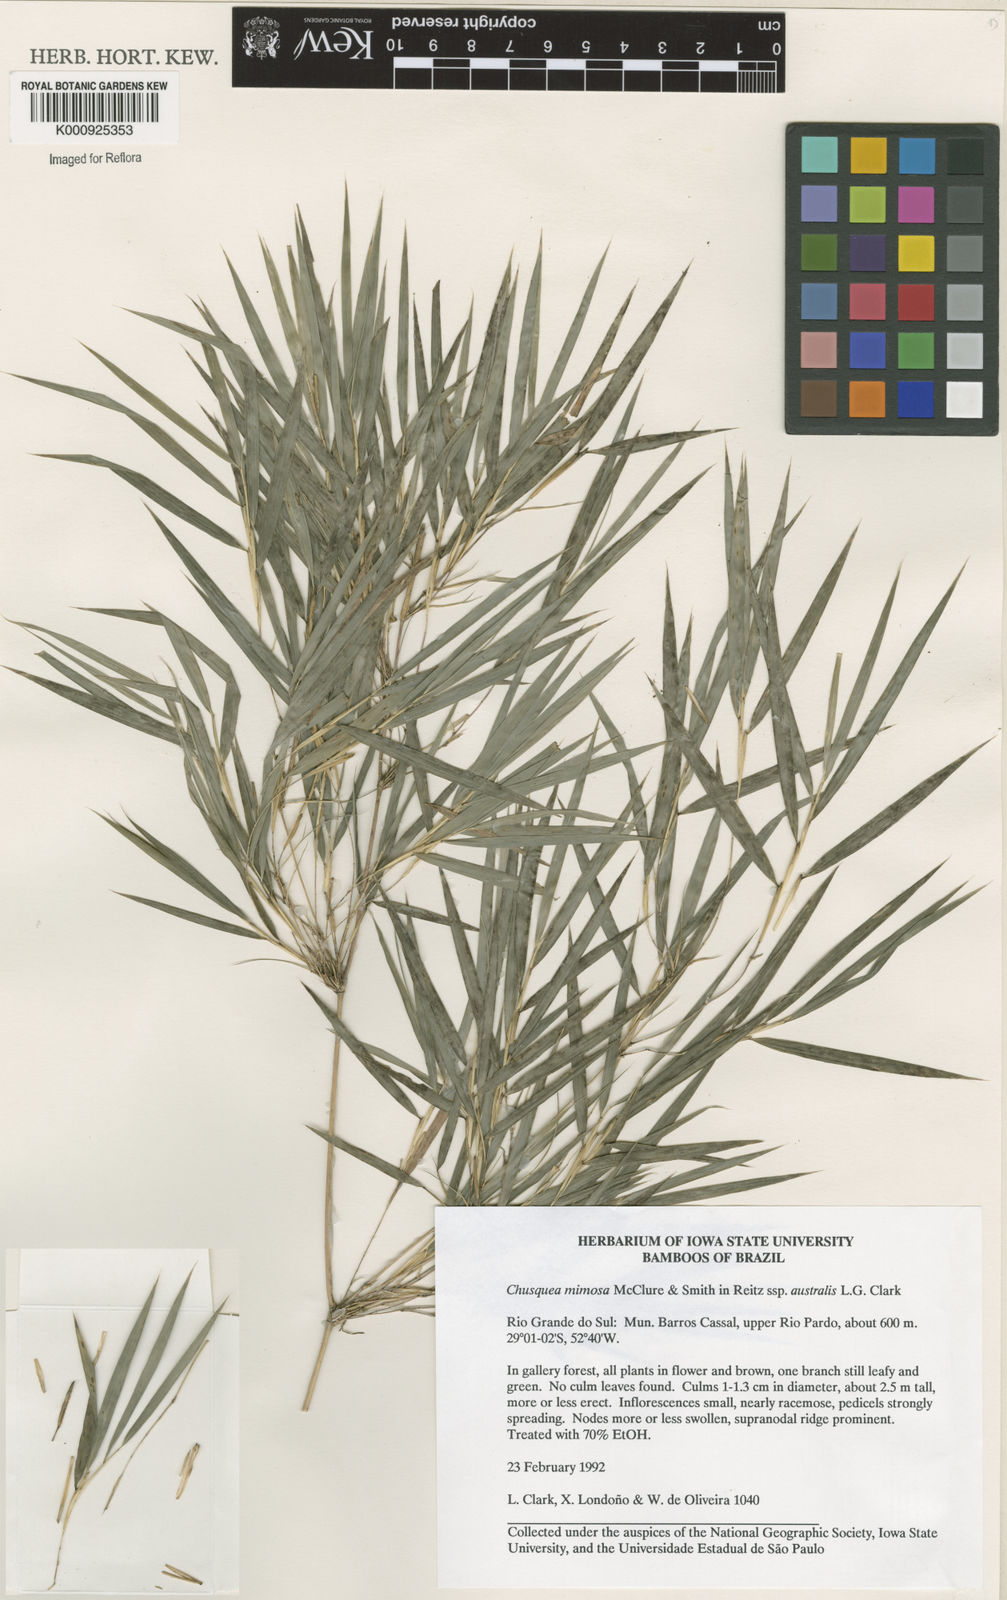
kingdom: Plantae
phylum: Tracheophyta
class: Liliopsida
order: Poales
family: Poaceae
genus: Chusquea
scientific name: Chusquea mimosa
